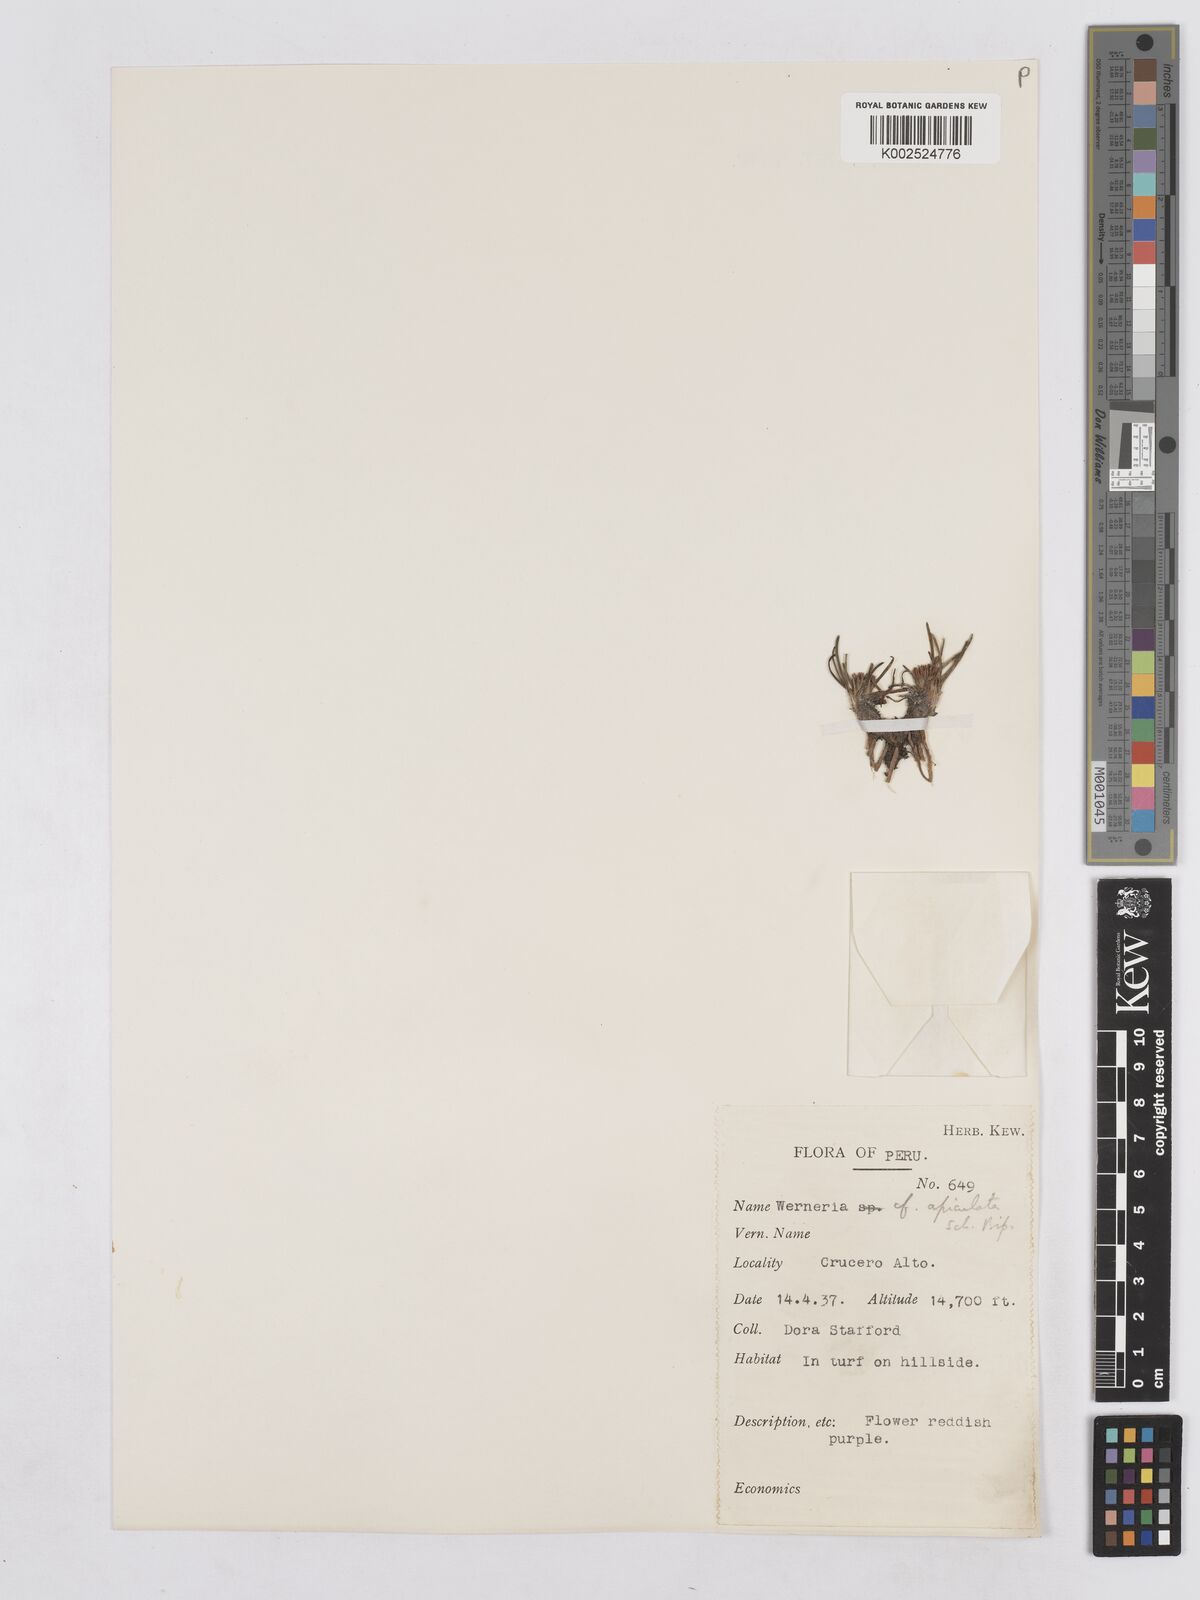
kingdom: Plantae
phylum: Tracheophyta
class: Magnoliopsida
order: Asterales
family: Asteraceae
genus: Rockhausenia
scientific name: Rockhausenia apiculata
